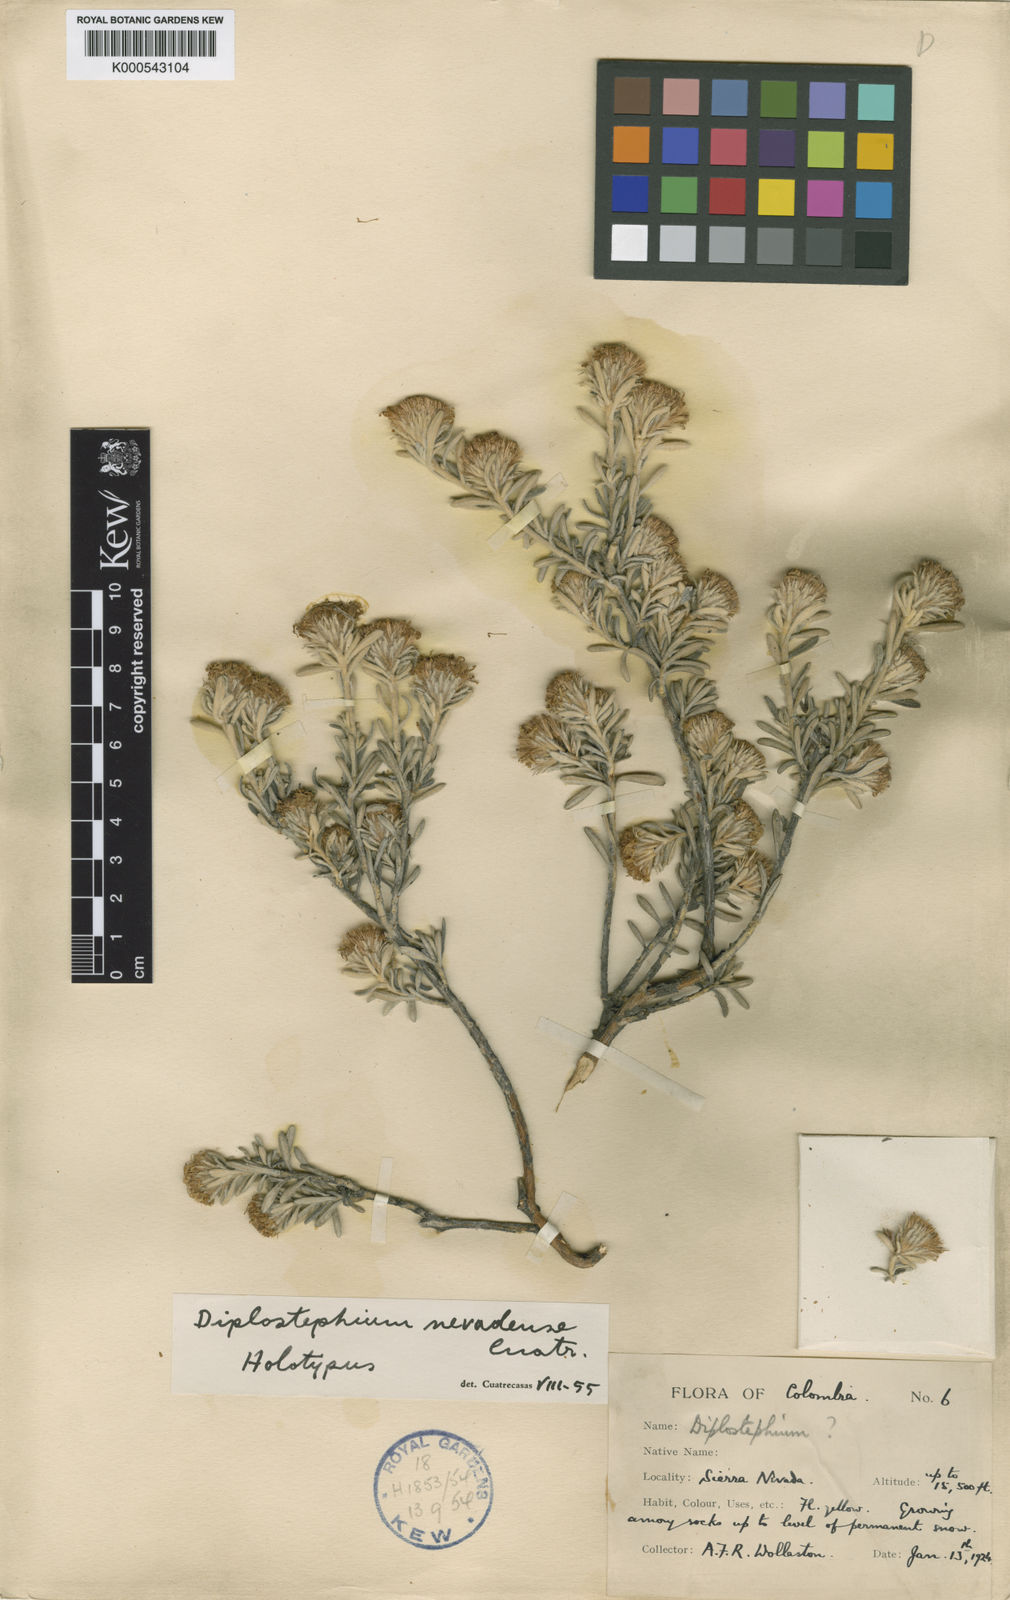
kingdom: Plantae
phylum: Tracheophyta
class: Magnoliopsida
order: Asterales
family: Asteraceae
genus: Linochilus
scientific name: Linochilus nevadensis
